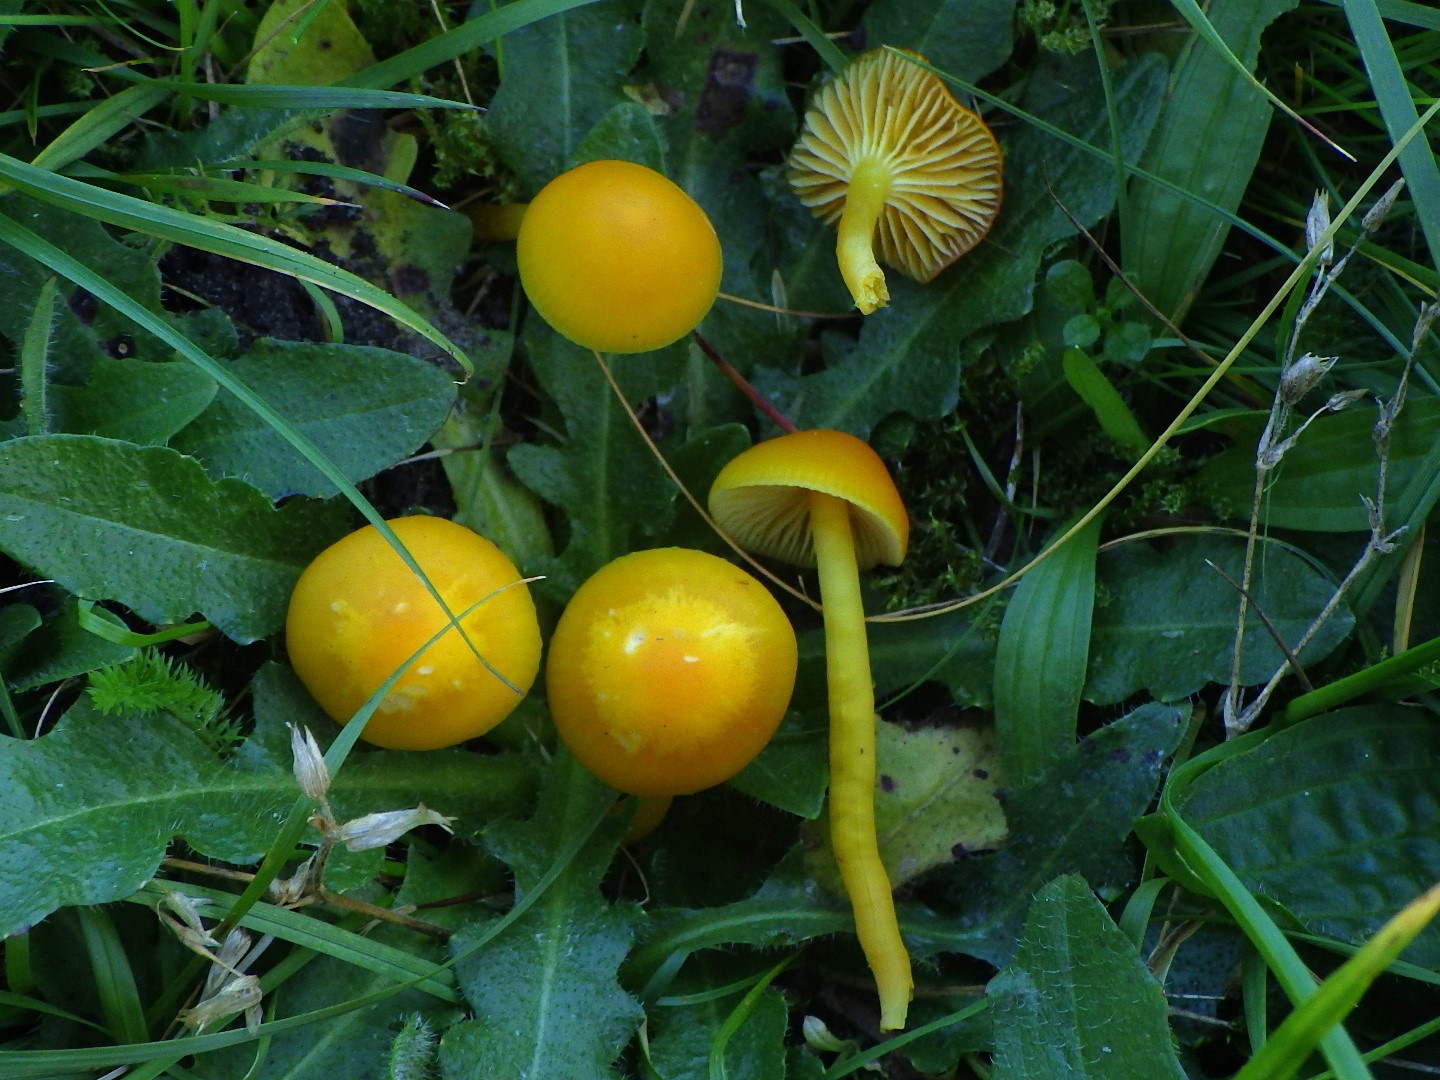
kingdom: Fungi
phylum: Basidiomycota
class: Agaricomycetes
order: Agaricales
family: Hygrophoraceae
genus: Hygrocybe
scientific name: Hygrocybe ceracea
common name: voksgul vokshat
